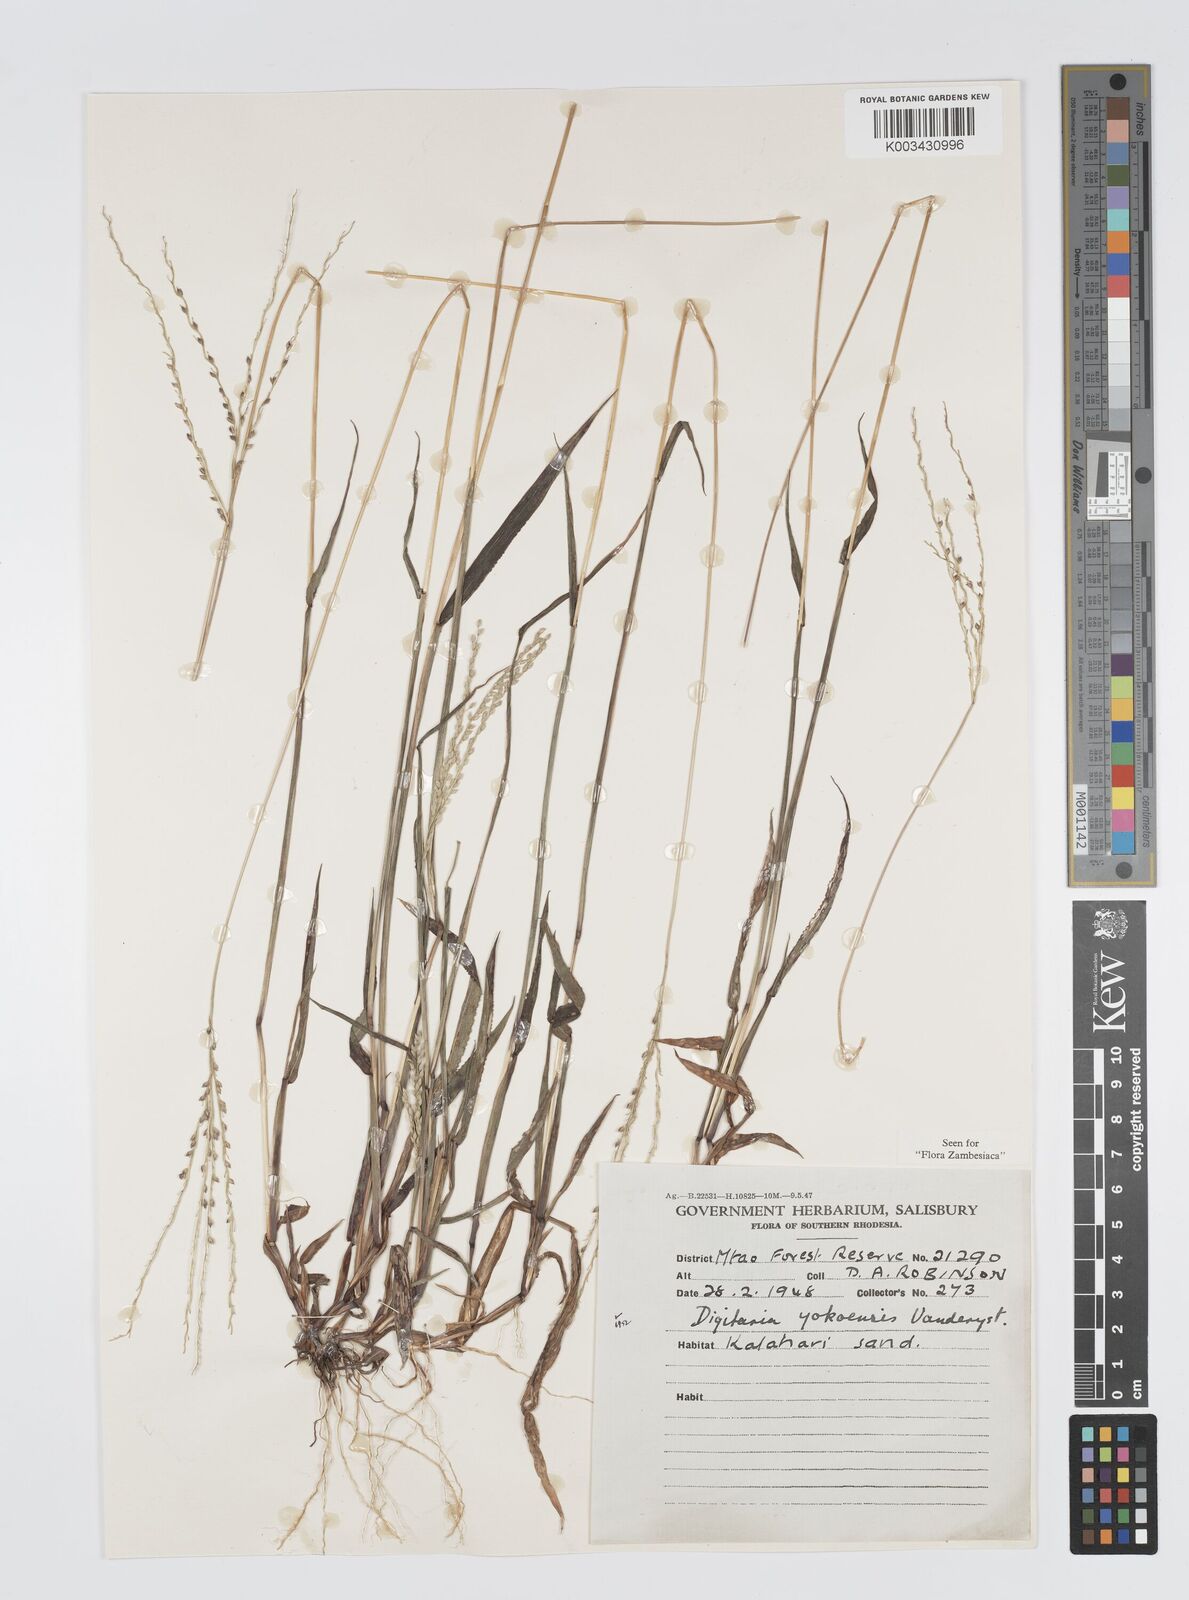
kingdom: Plantae
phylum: Tracheophyta
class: Liliopsida
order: Poales
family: Poaceae
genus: Digitaria
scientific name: Digitaria angolensis
